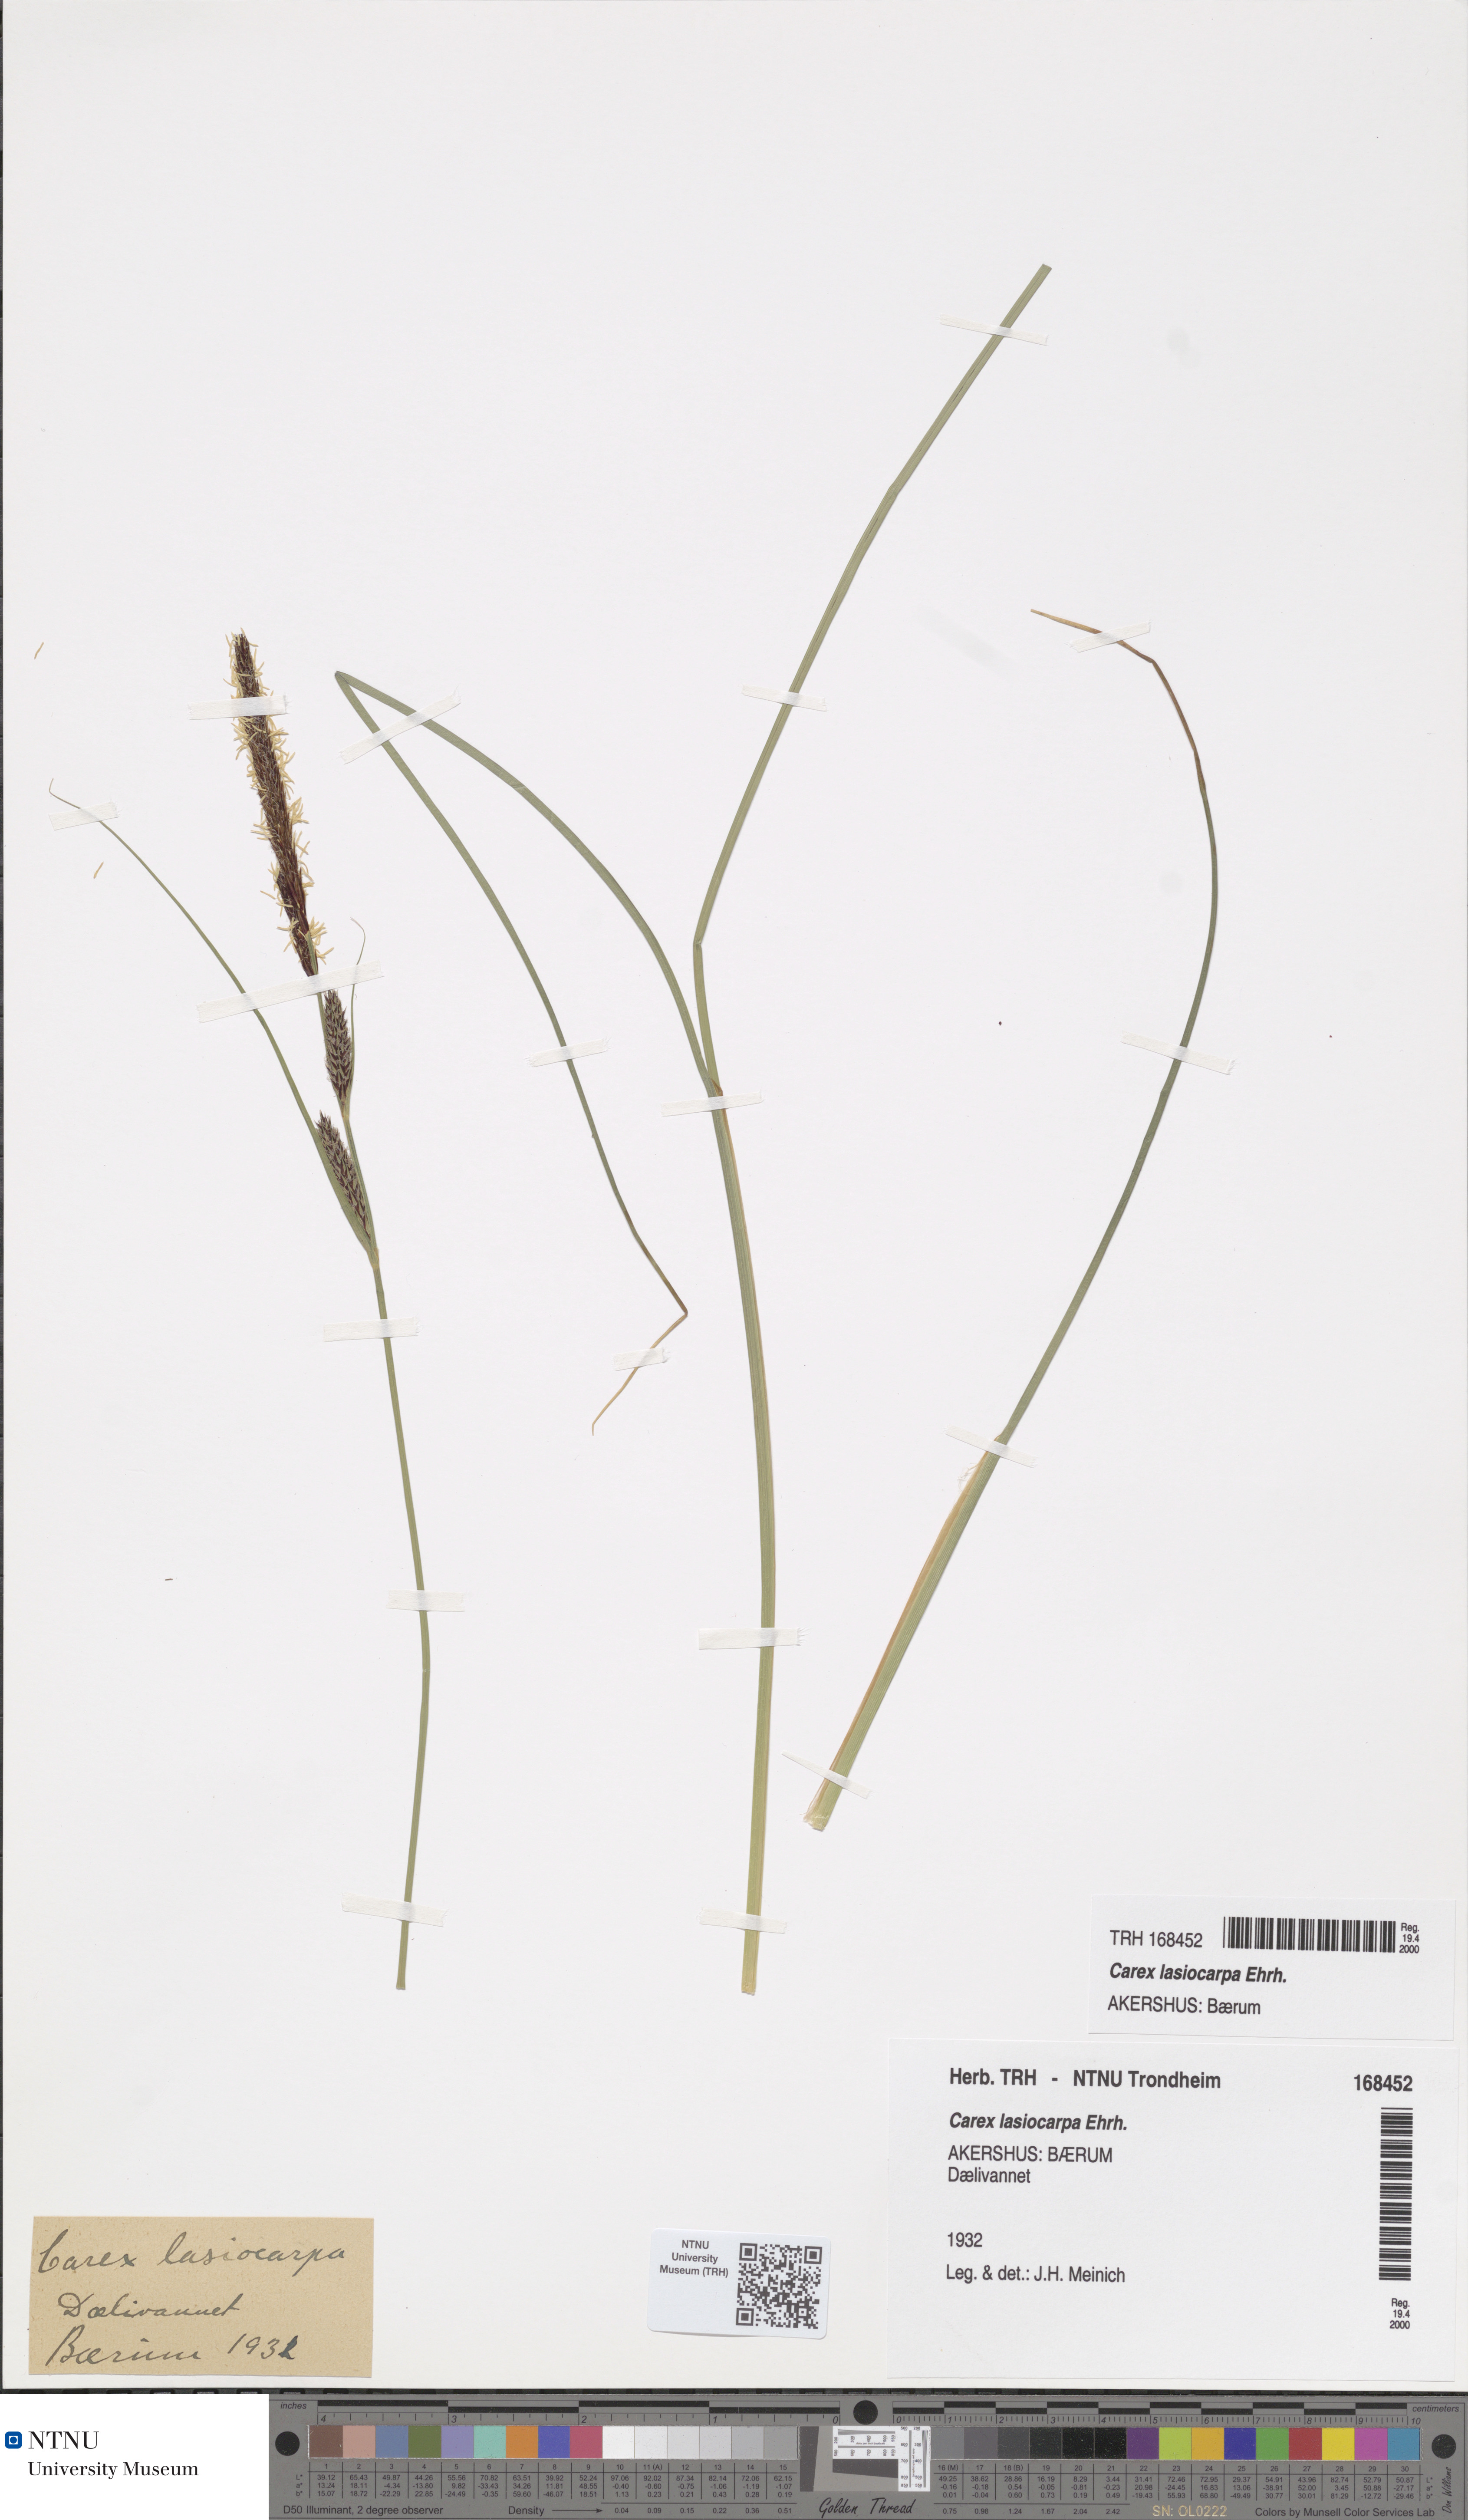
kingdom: Plantae
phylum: Tracheophyta
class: Liliopsida
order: Poales
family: Cyperaceae
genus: Carex
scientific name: Carex lasiocarpa
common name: Slender sedge
